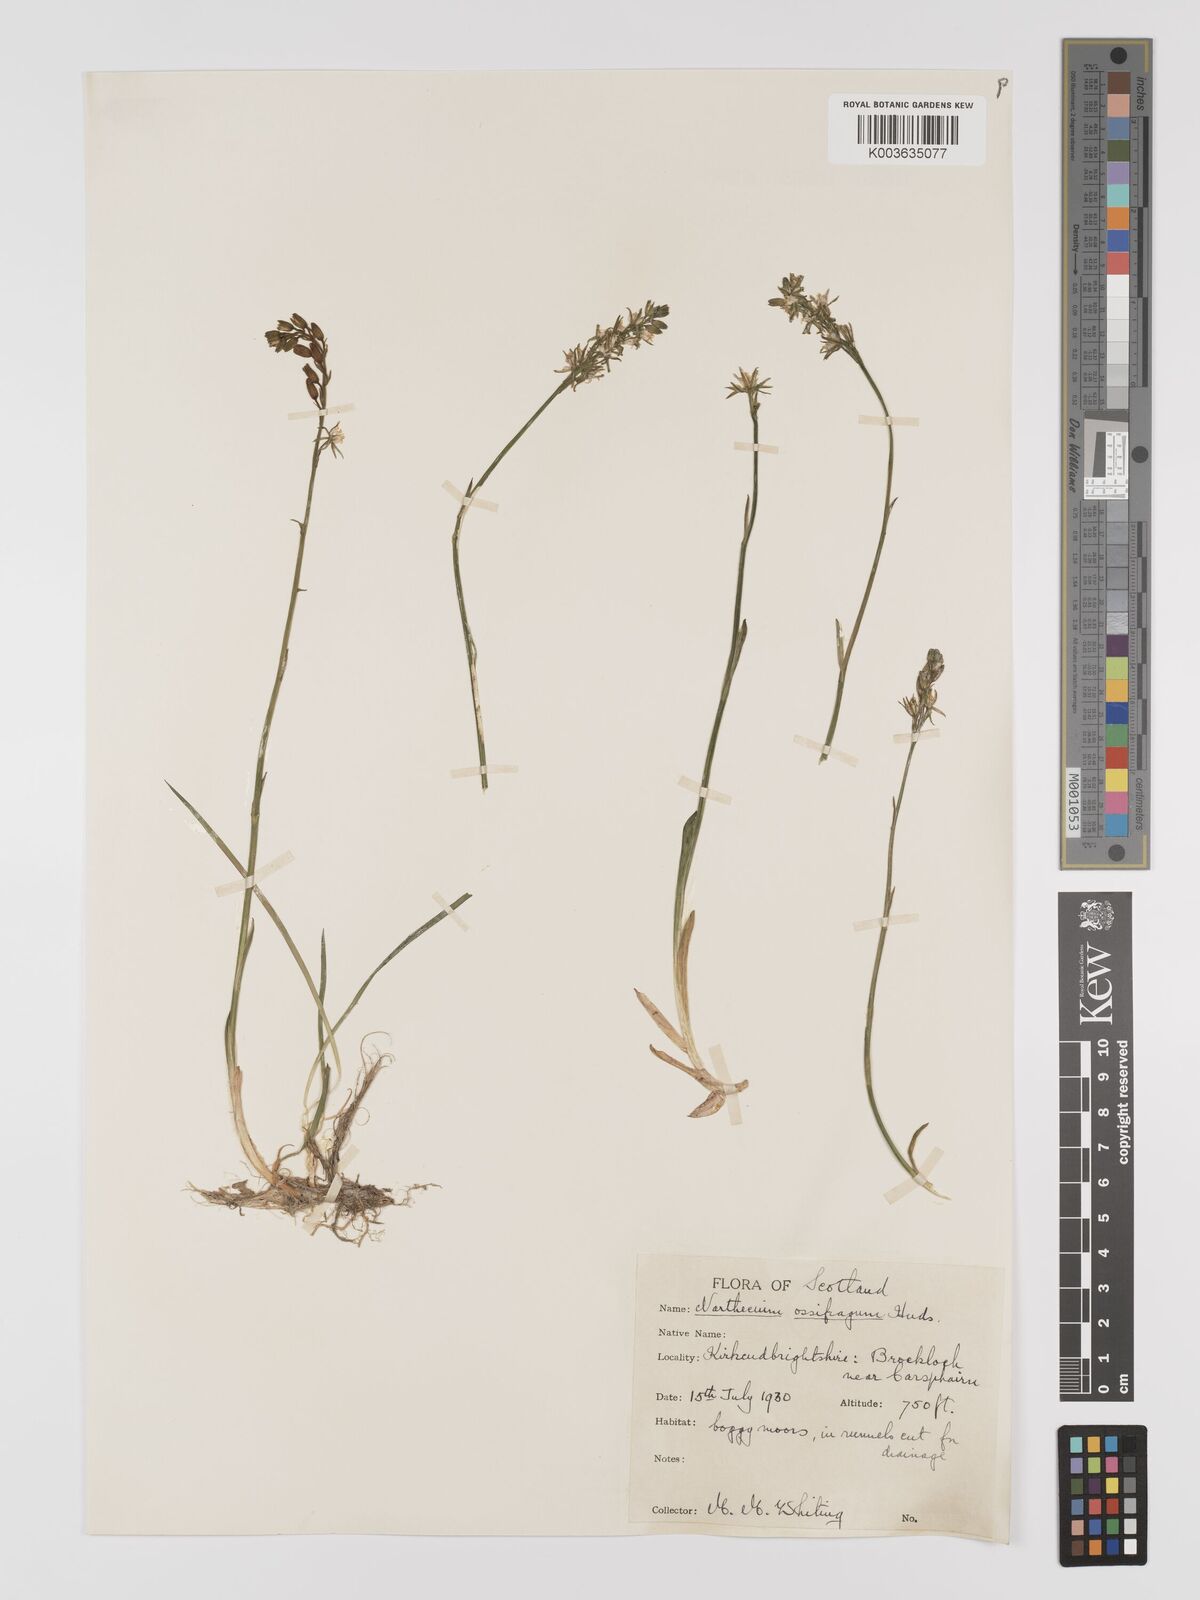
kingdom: Plantae
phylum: Tracheophyta
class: Liliopsida
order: Dioscoreales
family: Nartheciaceae
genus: Narthecium
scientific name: Narthecium
